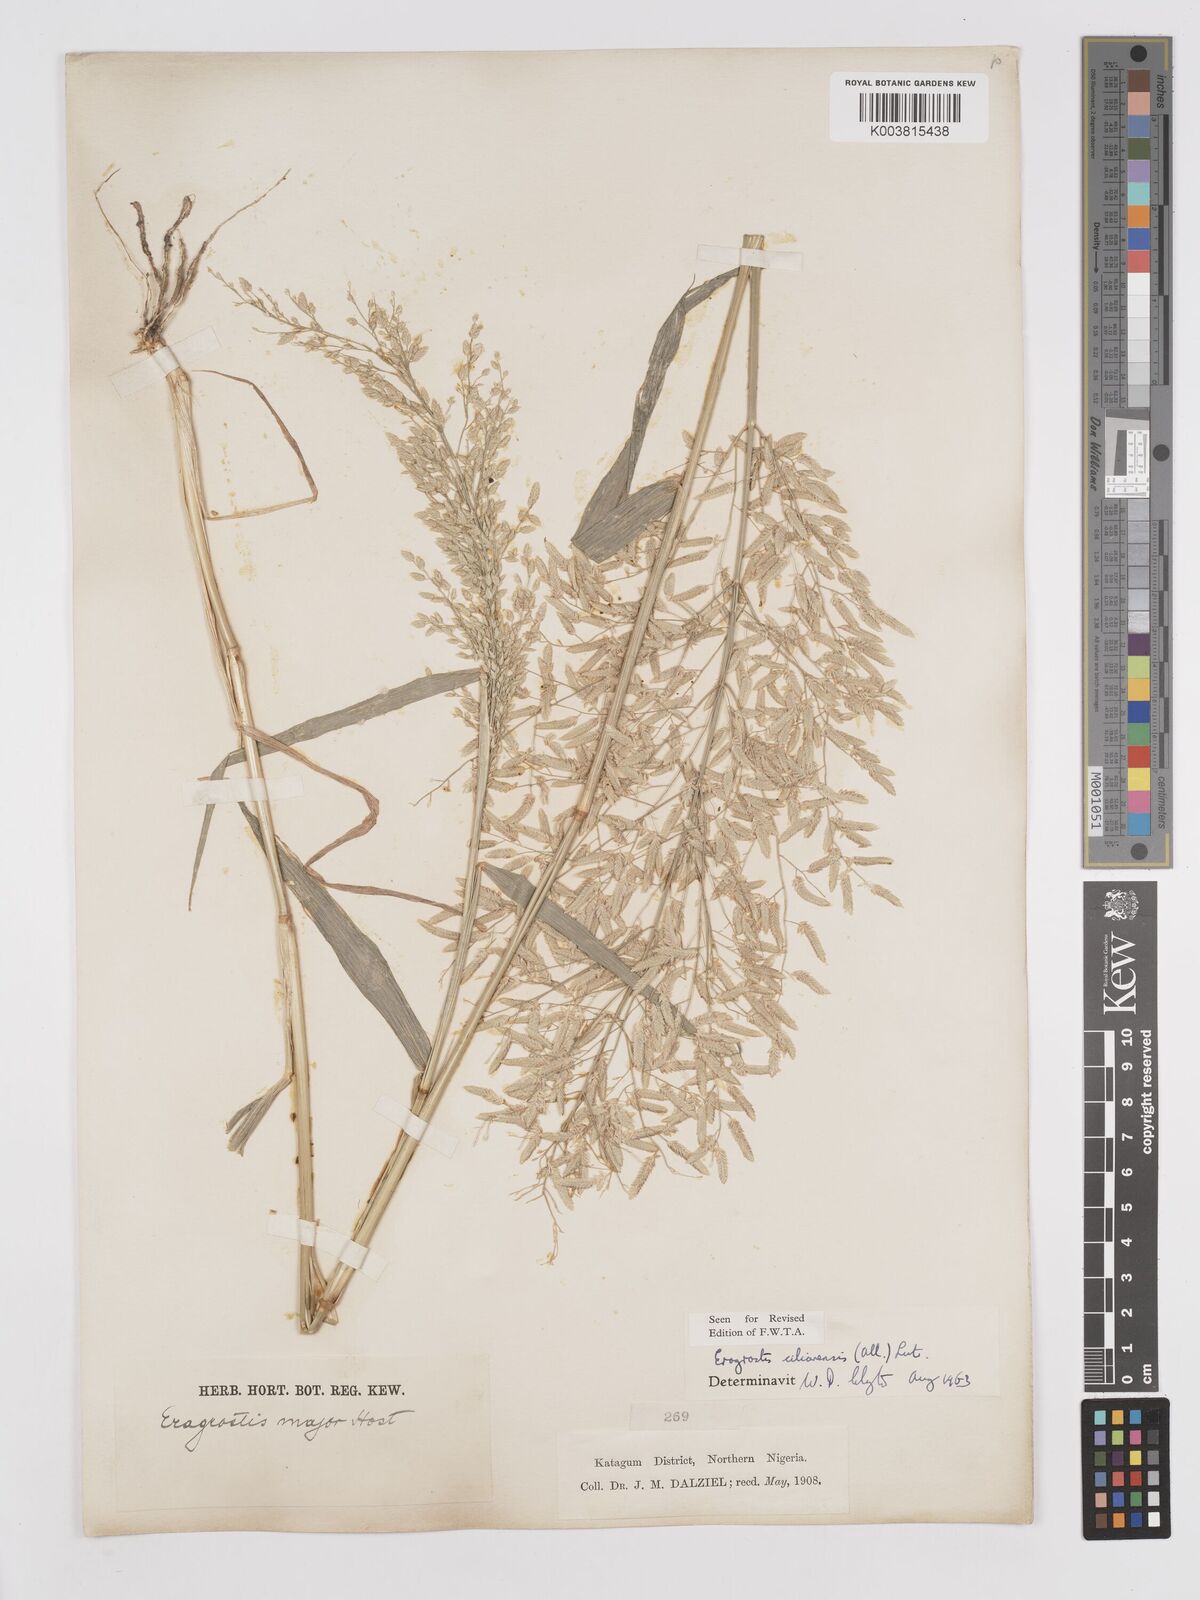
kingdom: Plantae
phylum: Tracheophyta
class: Liliopsida
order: Poales
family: Poaceae
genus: Eragrostis
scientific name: Eragrostis cilianensis
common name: Stinkgrass
